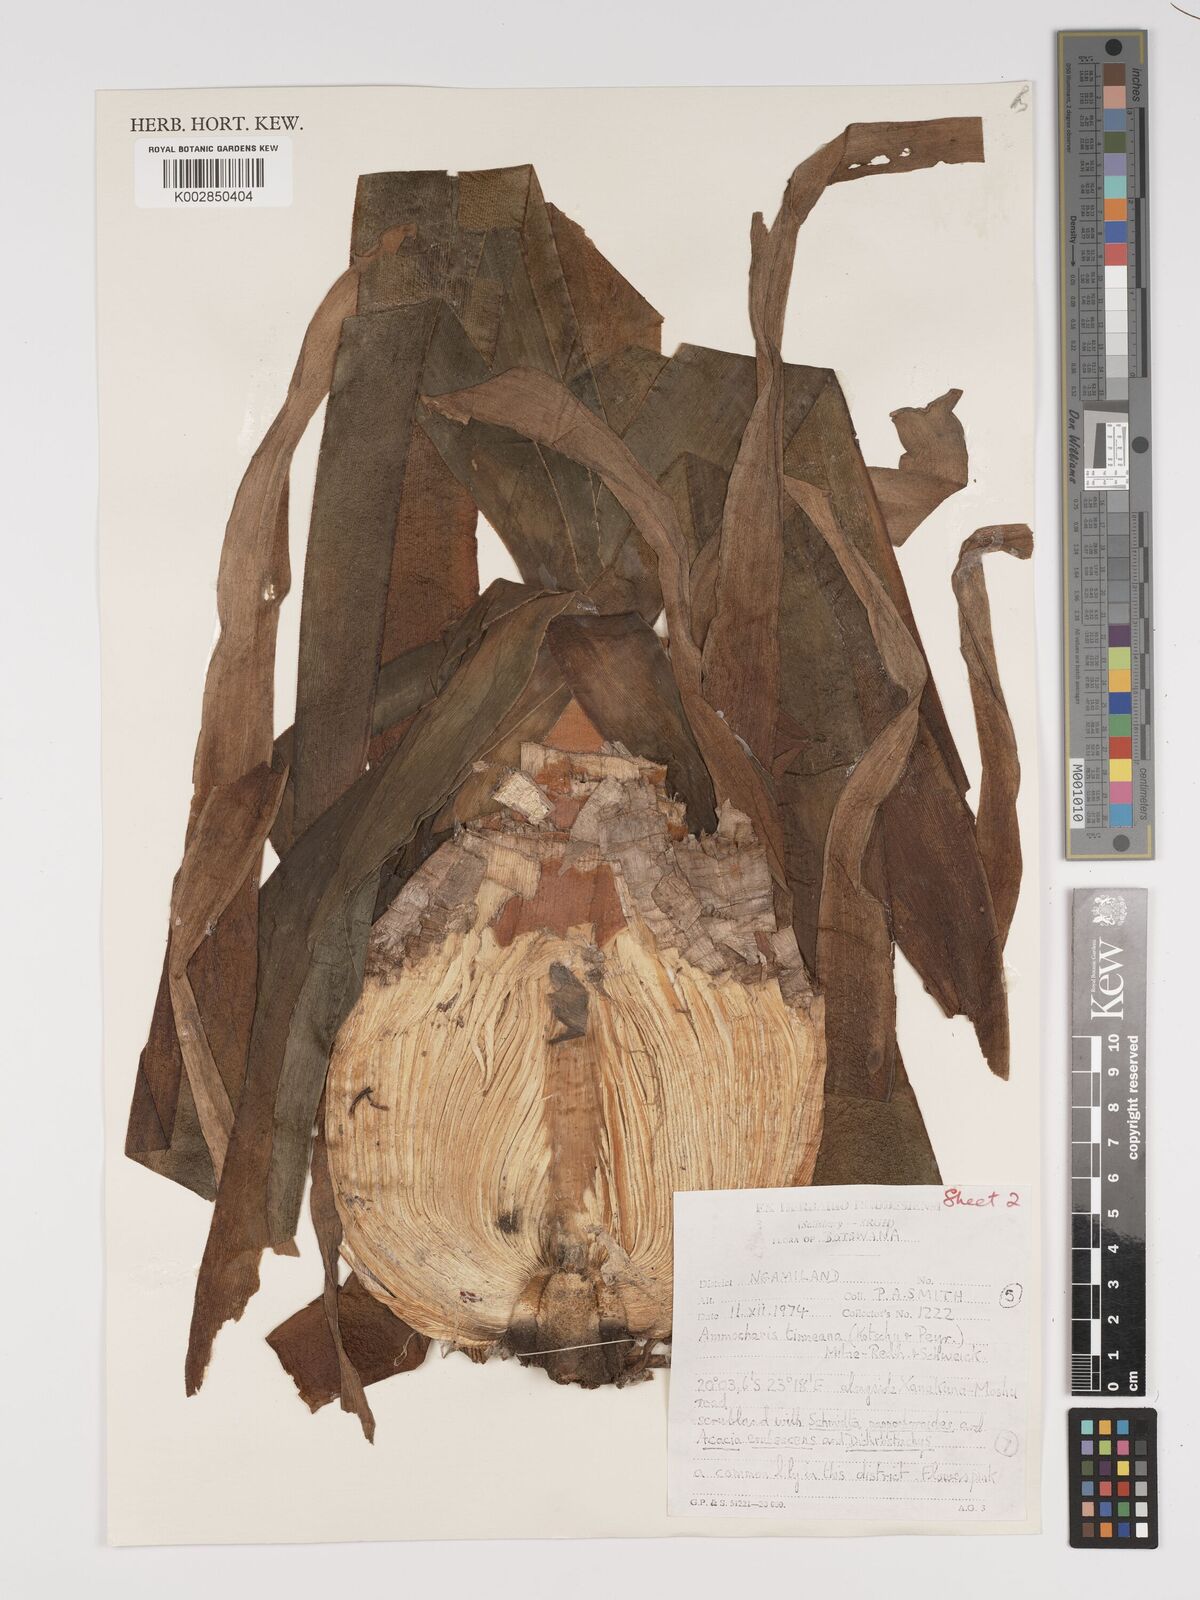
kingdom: Plantae
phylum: Tracheophyta
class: Liliopsida
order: Asparagales
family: Amaryllidaceae
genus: Ammocharis
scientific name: Ammocharis tinneana
